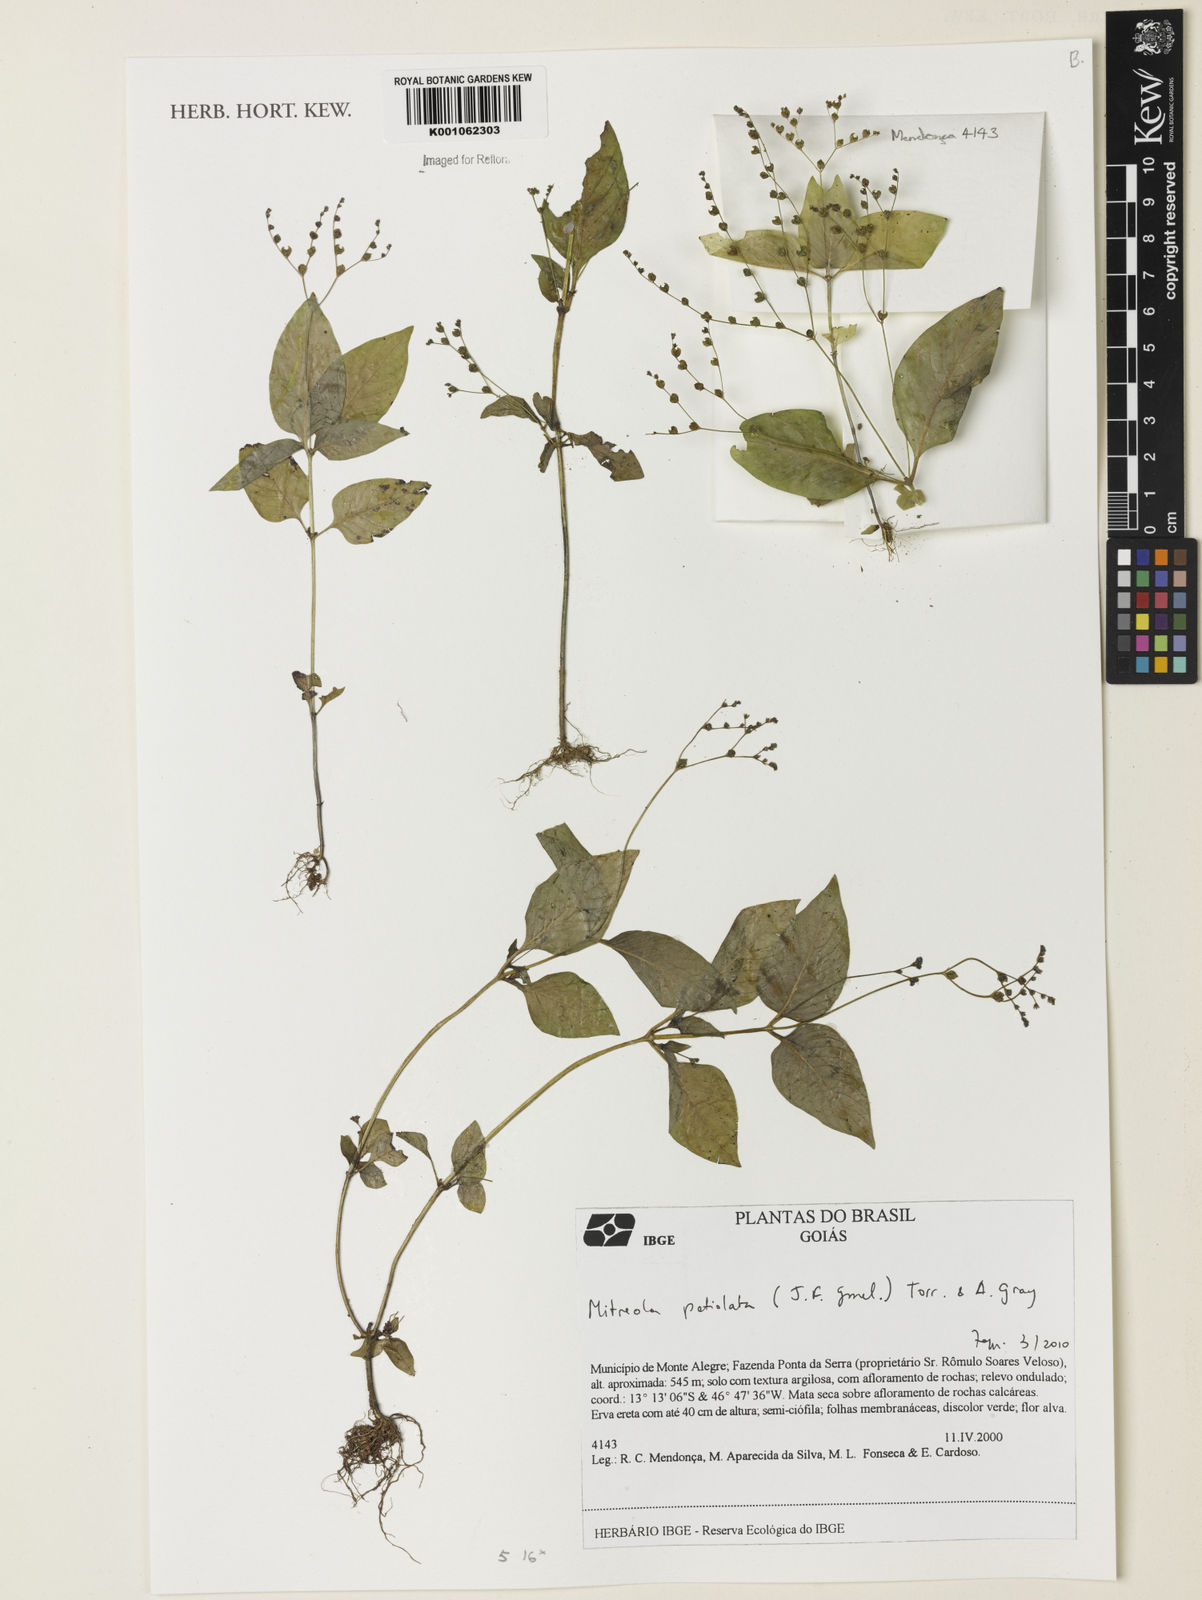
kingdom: Plantae
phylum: Tracheophyta
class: Magnoliopsida
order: Gentianales
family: Loganiaceae
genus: Mitreola
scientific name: Mitreola petiolata
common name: Lax hornpod
